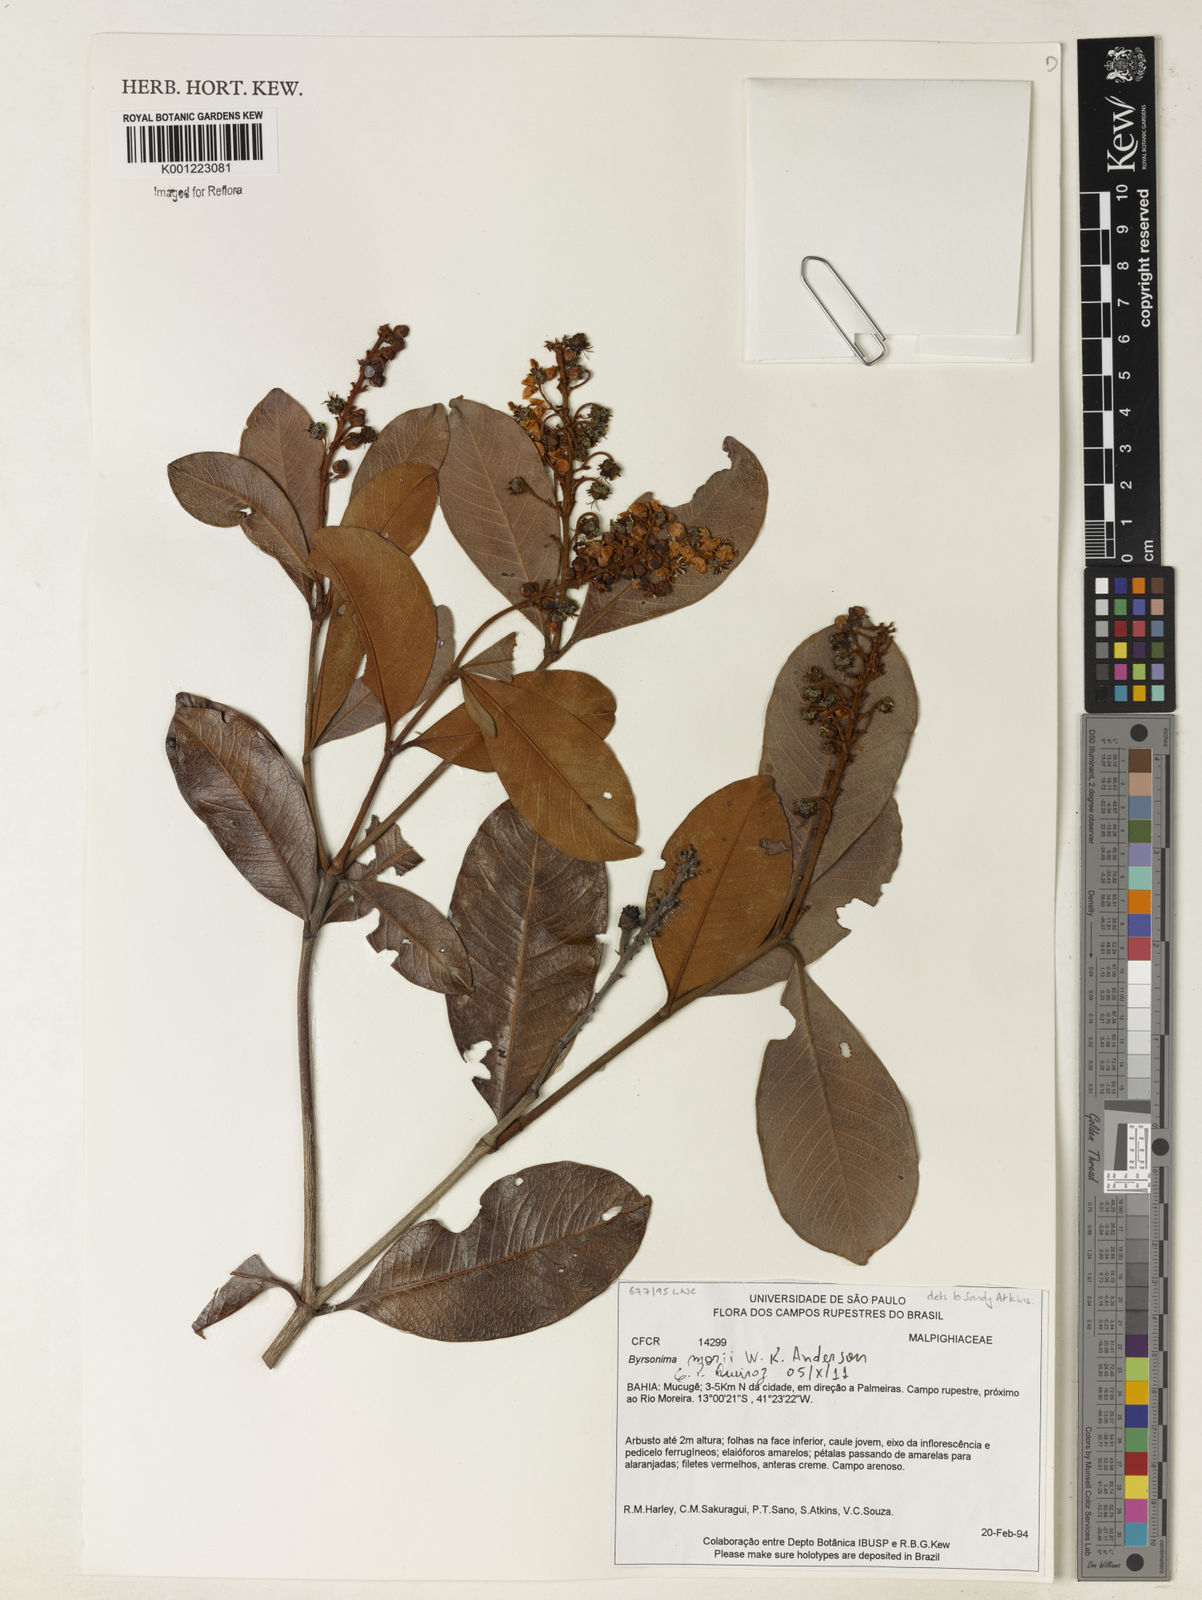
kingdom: Plantae
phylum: Tracheophyta
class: Magnoliopsida
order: Malpighiales
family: Malpighiaceae
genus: Byrsonima
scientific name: Byrsonima morii
